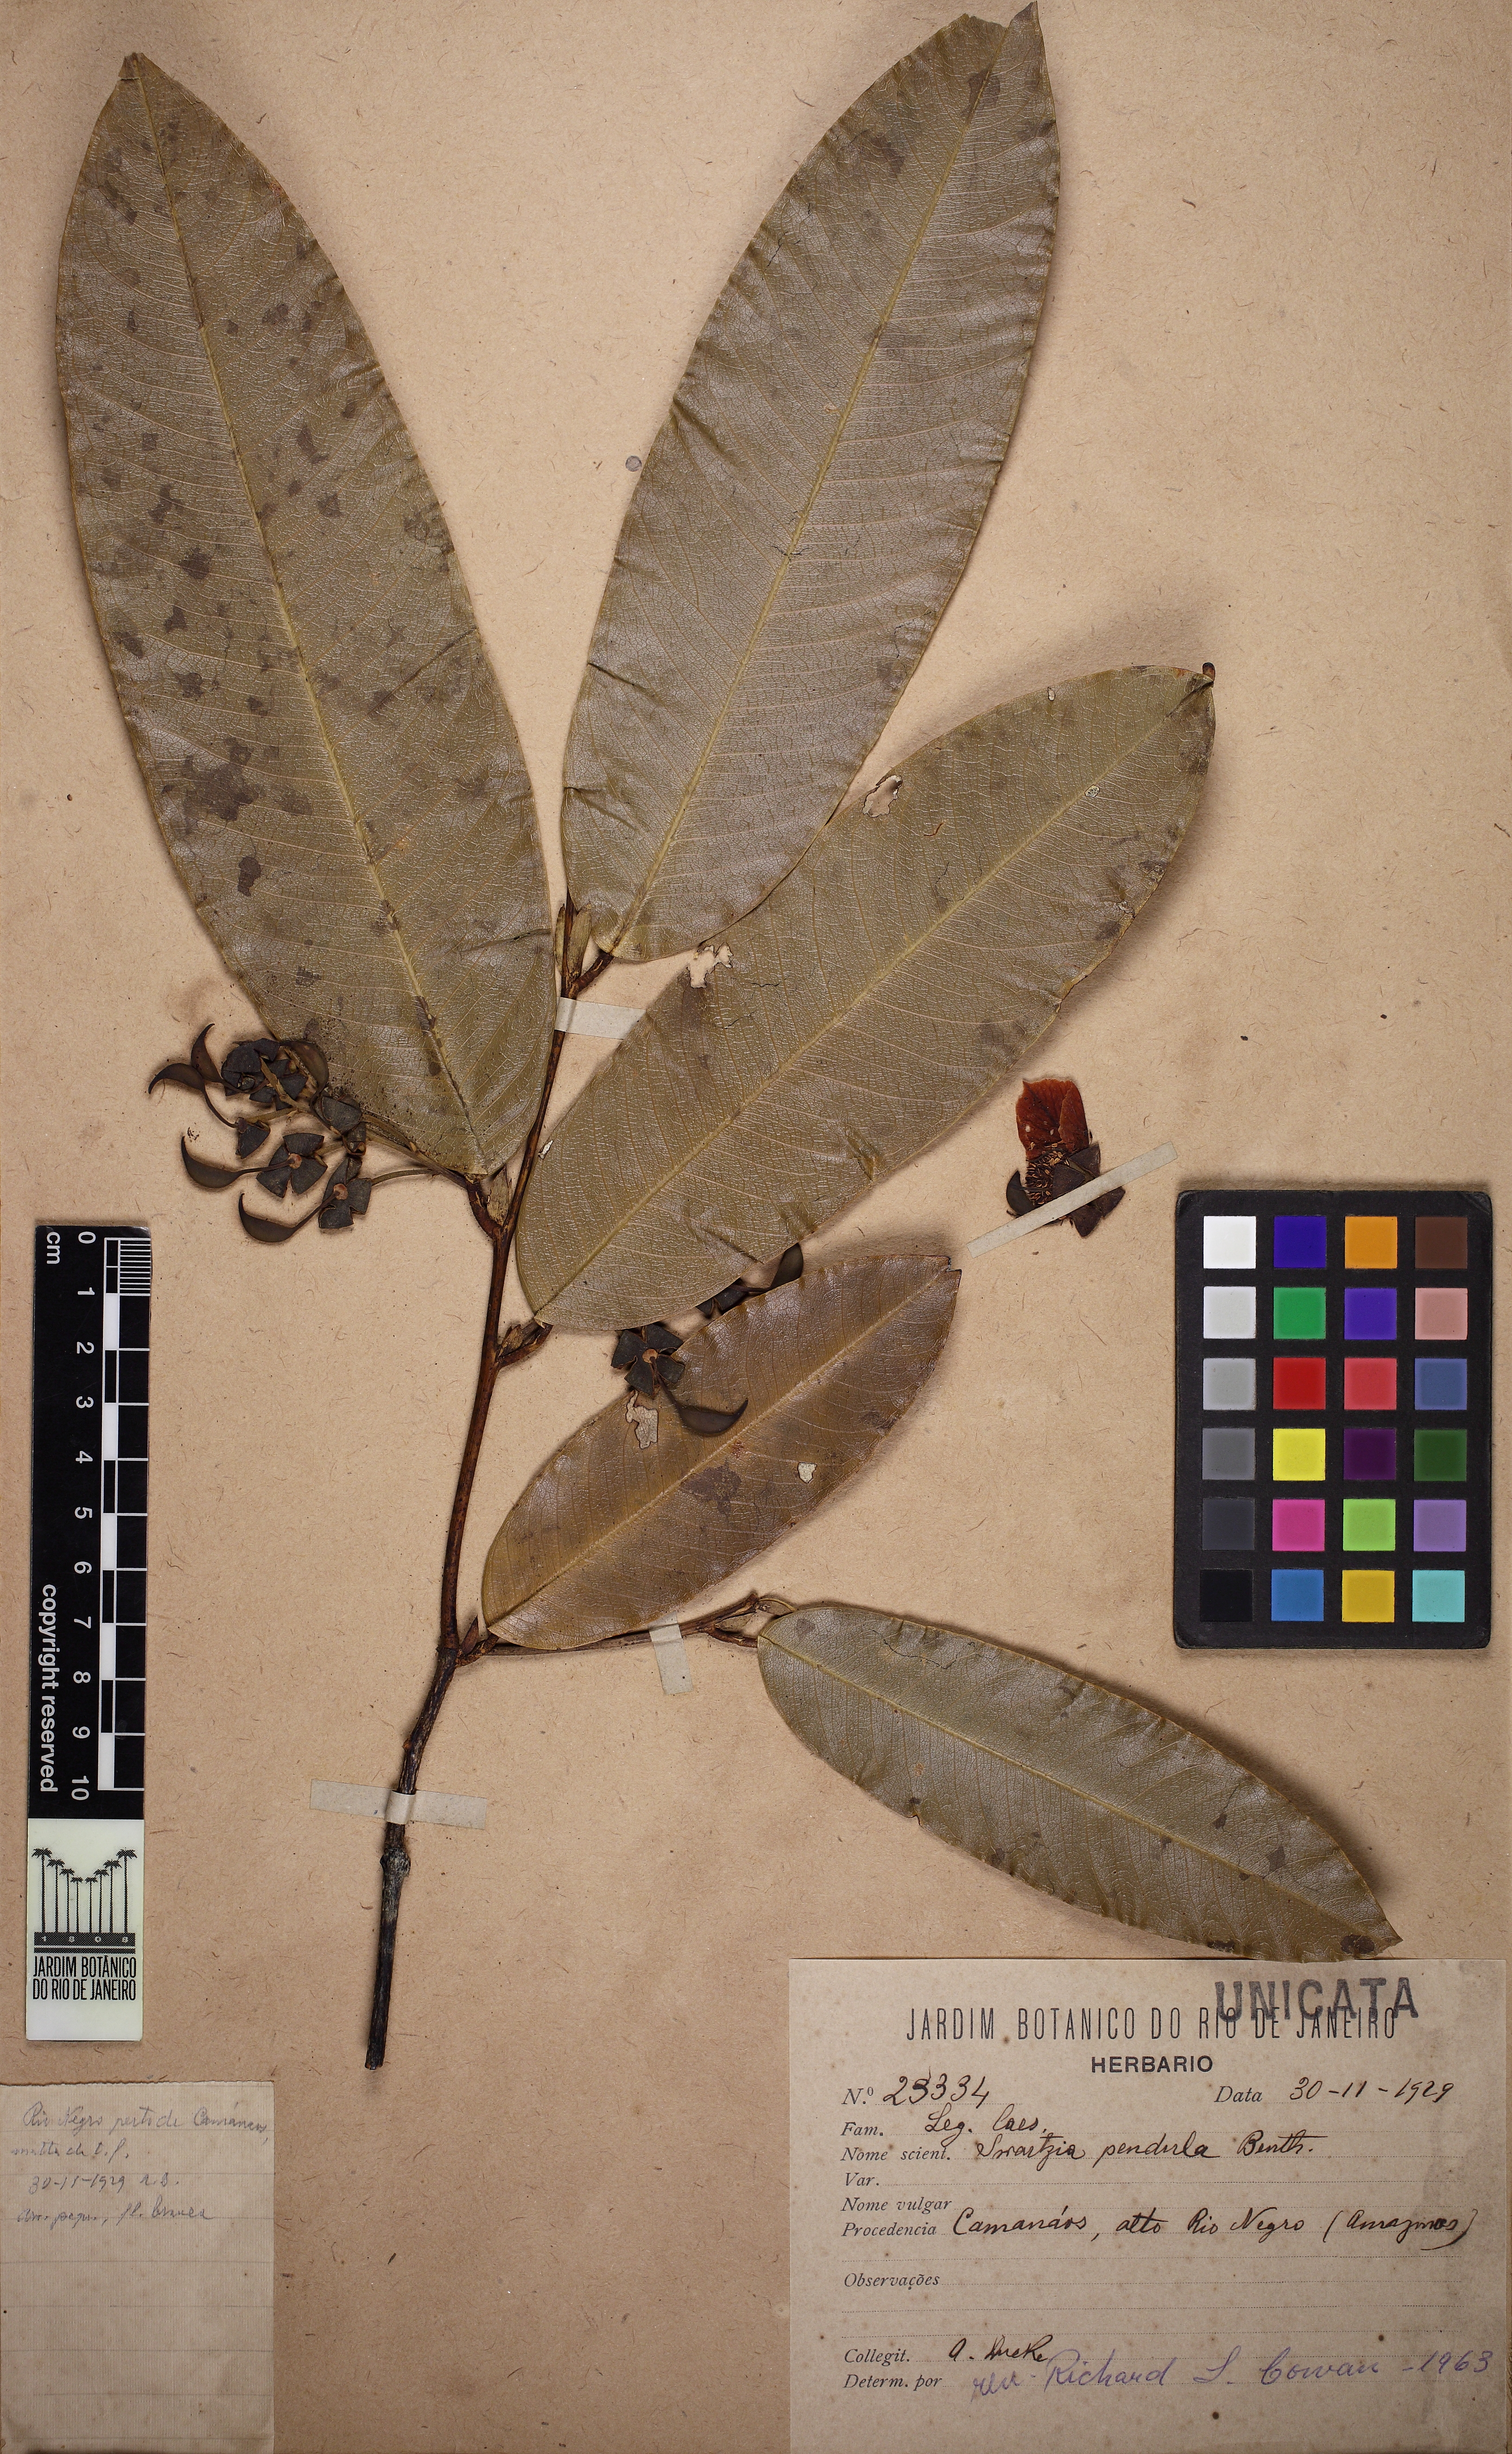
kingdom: Plantae
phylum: Tracheophyta
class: Magnoliopsida
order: Fabales
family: Fabaceae
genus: Swartzia
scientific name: Swartzia pendula
